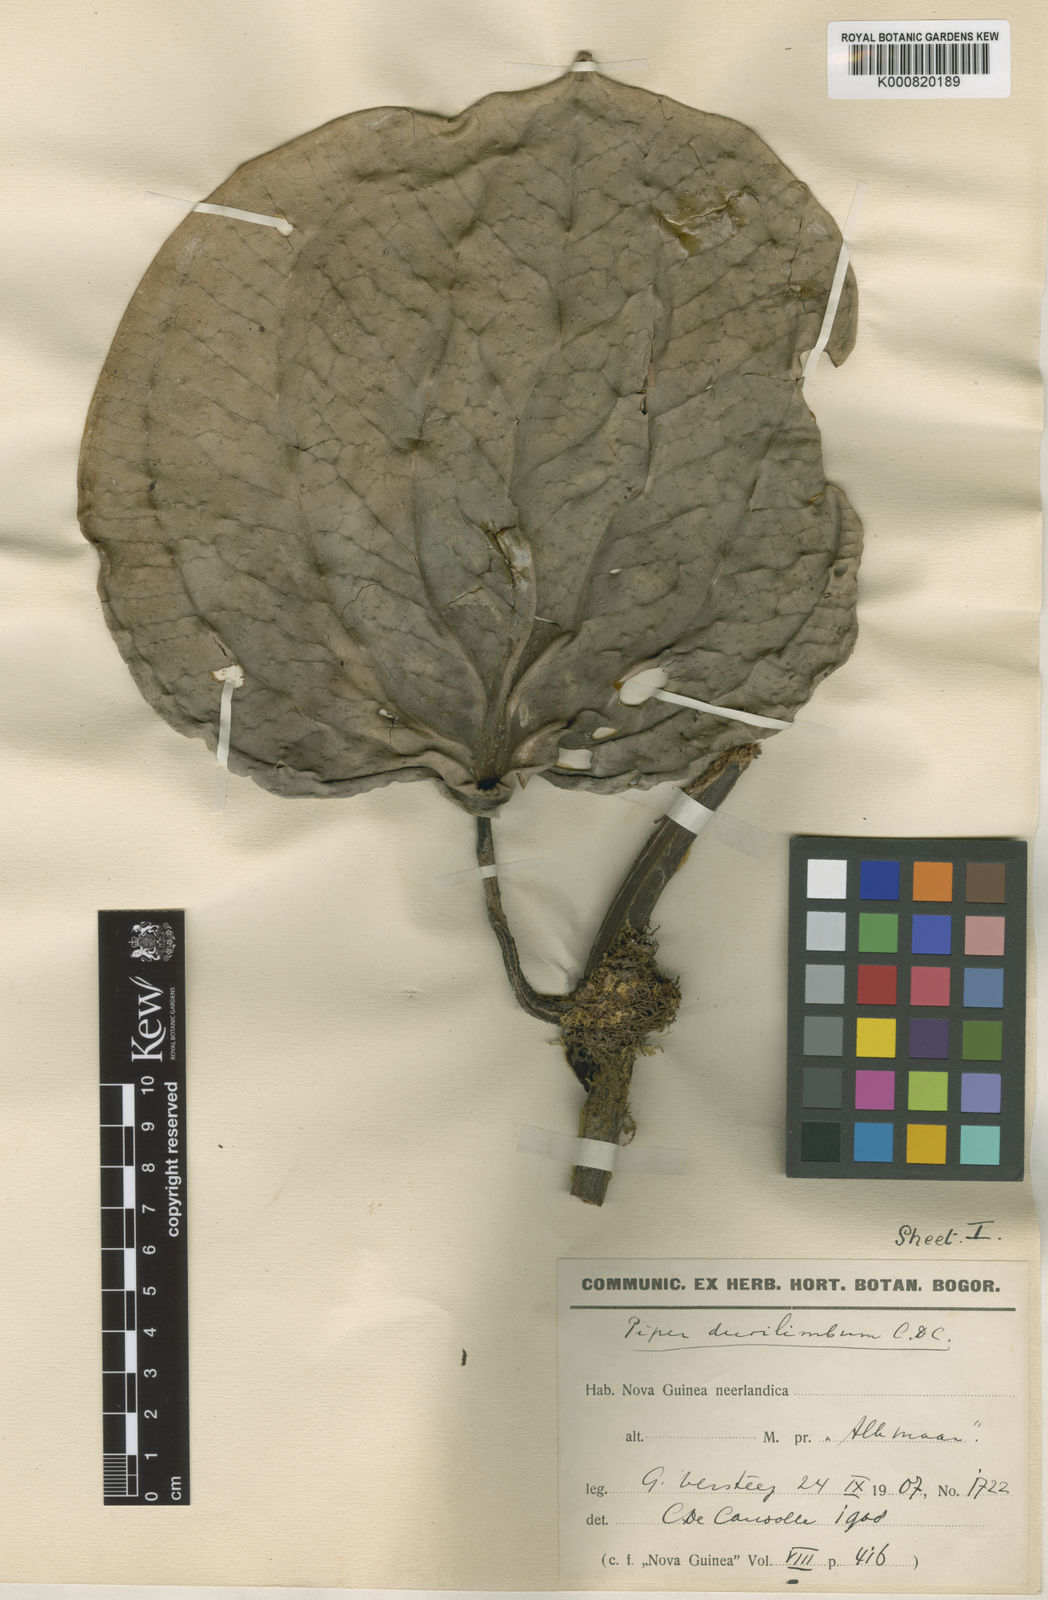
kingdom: Plantae
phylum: Tracheophyta
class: Magnoliopsida
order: Piperales
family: Piperaceae
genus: Piper
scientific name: Piper durilignum
